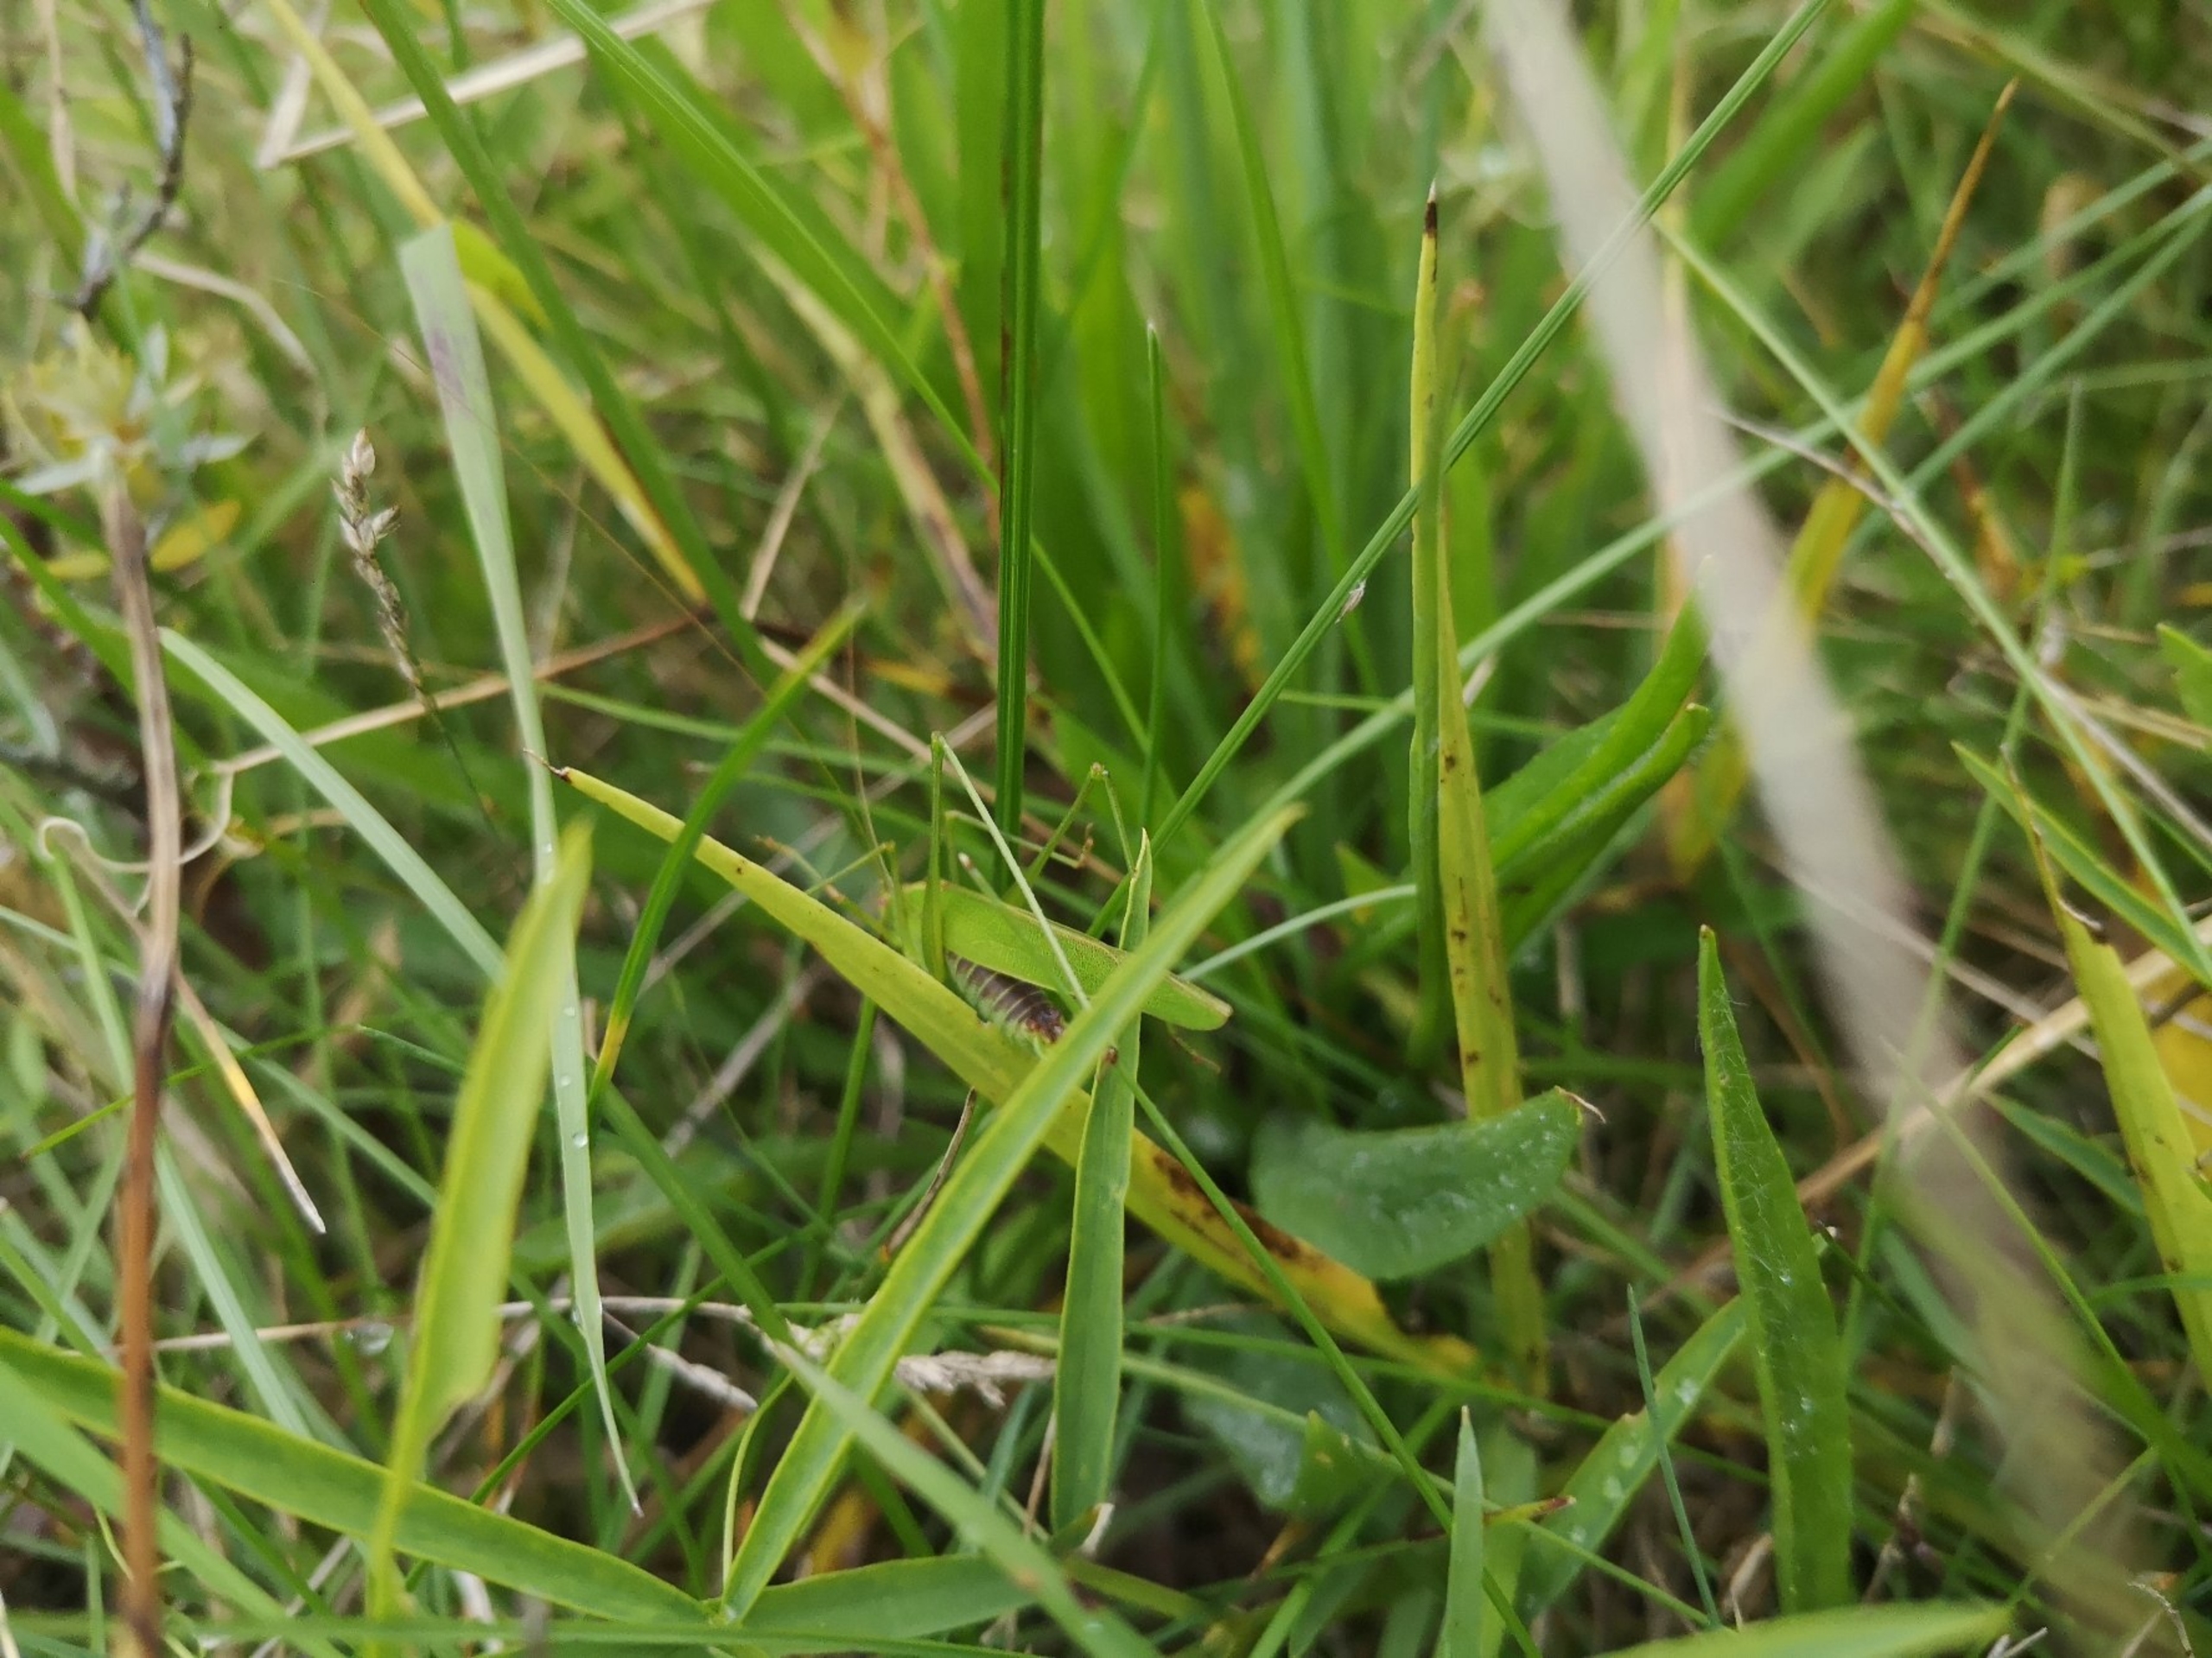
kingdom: Animalia
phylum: Arthropoda
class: Insecta
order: Orthoptera
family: Tettigoniidae
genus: Phaneroptera
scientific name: Phaneroptera falcata
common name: Seglgræshoppe
